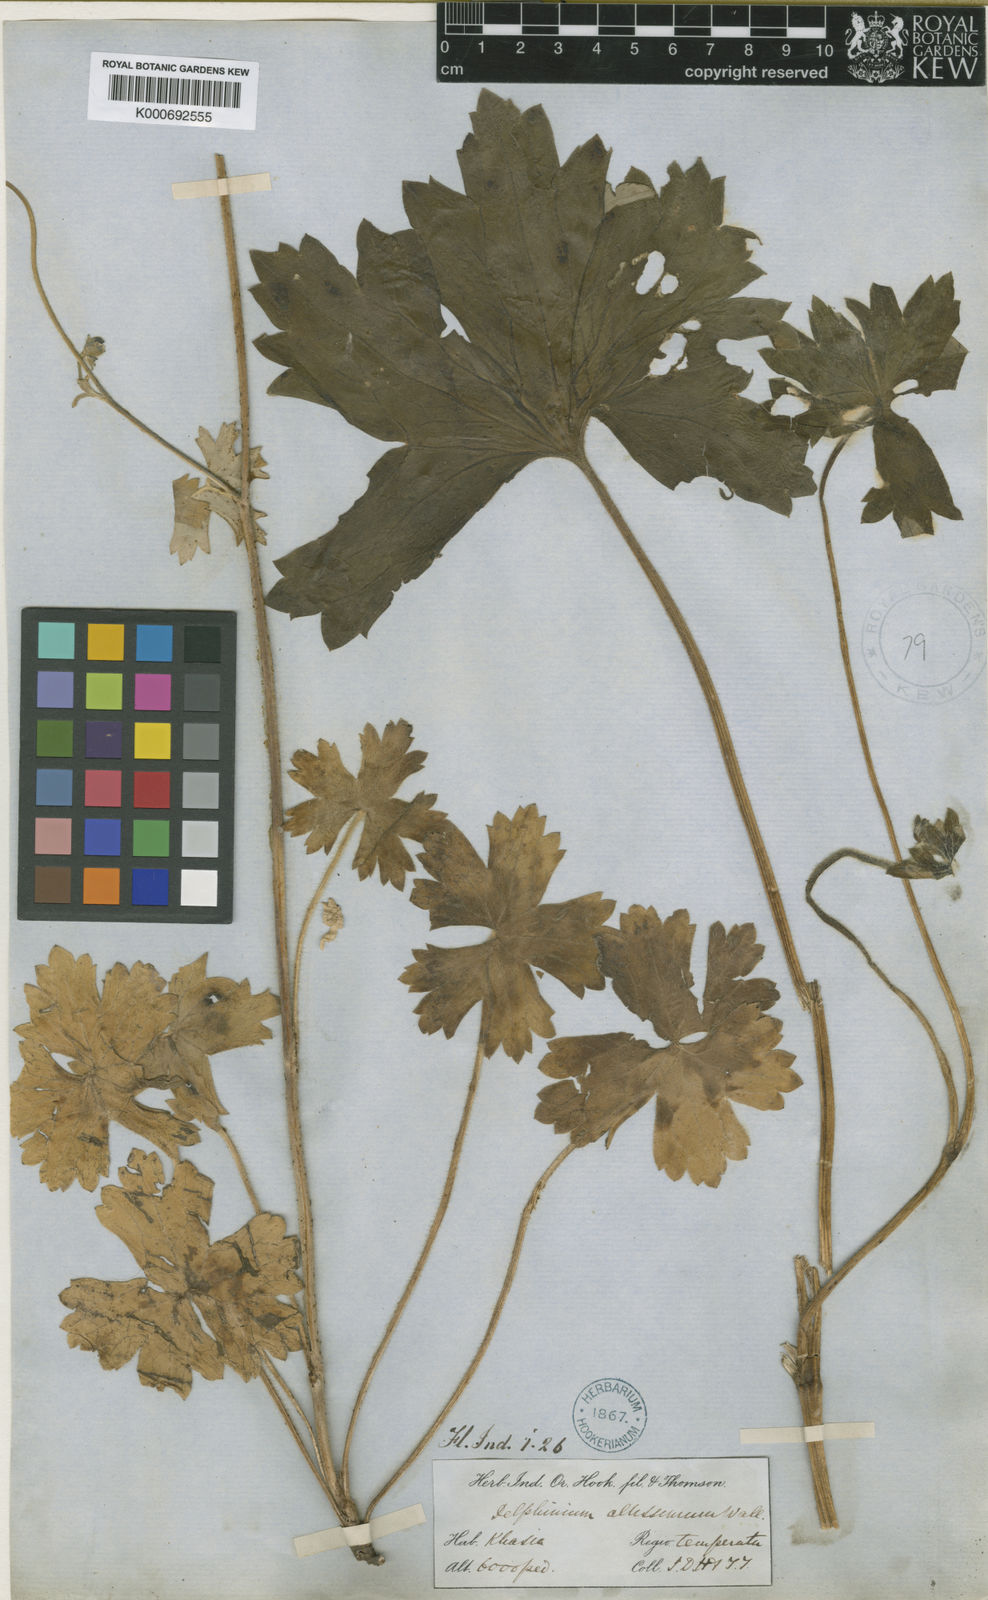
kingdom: Plantae
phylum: Tracheophyta
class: Magnoliopsida
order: Ranunculales
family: Ranunculaceae
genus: Delphinium
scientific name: Delphinium stapeliosmum
